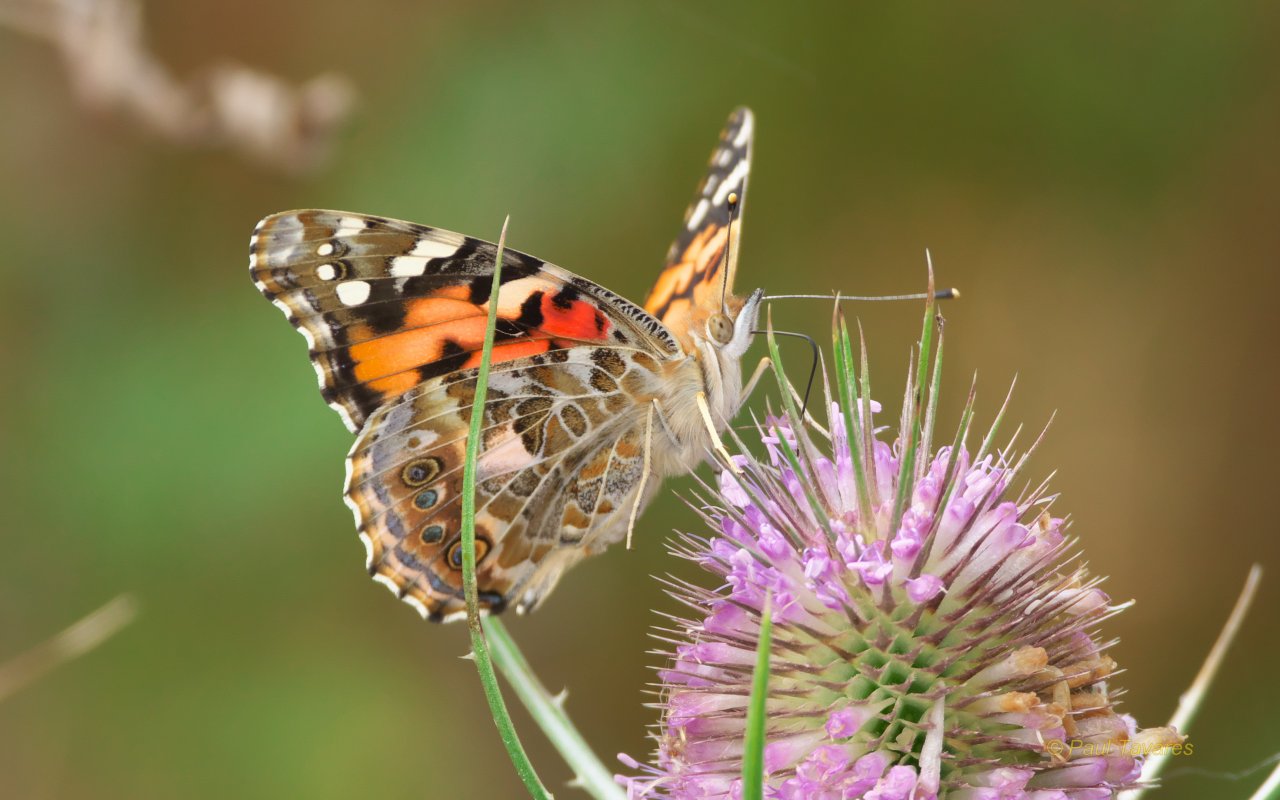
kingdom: Animalia
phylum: Arthropoda
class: Insecta
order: Lepidoptera
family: Nymphalidae
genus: Vanessa
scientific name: Vanessa cardui
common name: Painted Lady
